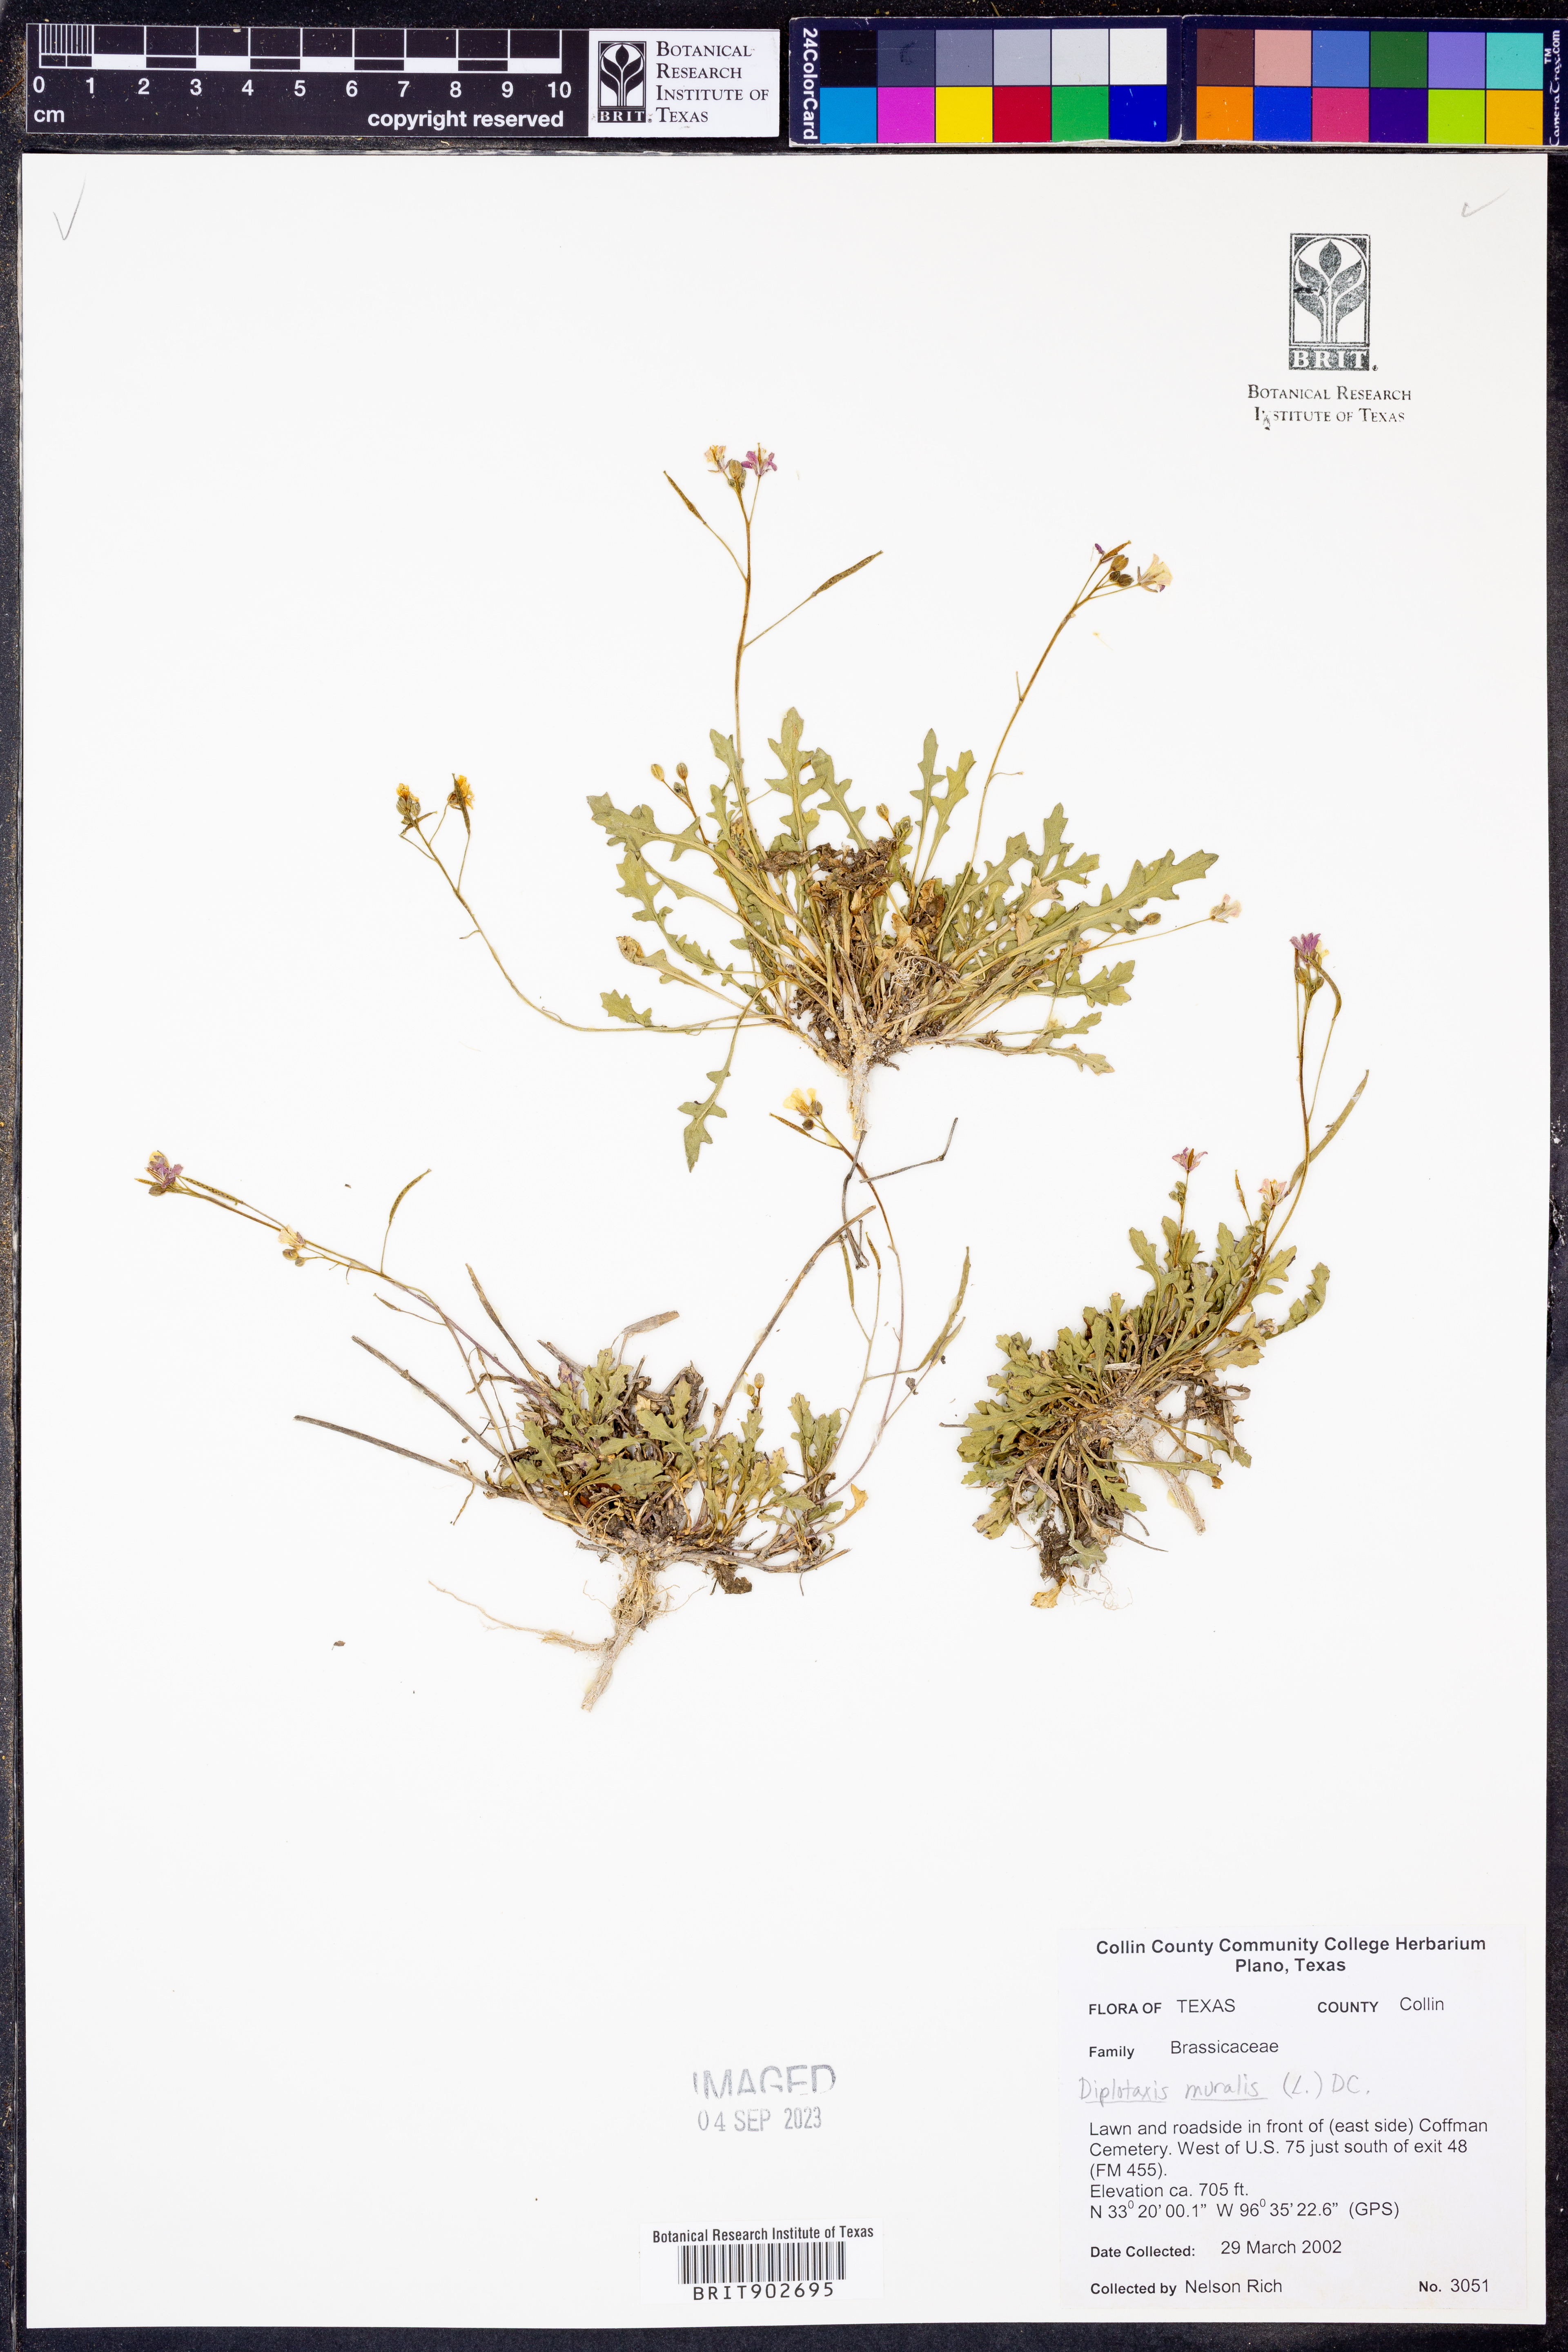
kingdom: Plantae
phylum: Tracheophyta
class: Magnoliopsida
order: Brassicales
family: Brassicaceae
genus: Diplotaxis
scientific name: Diplotaxis muralis
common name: Annual wall-rocket
